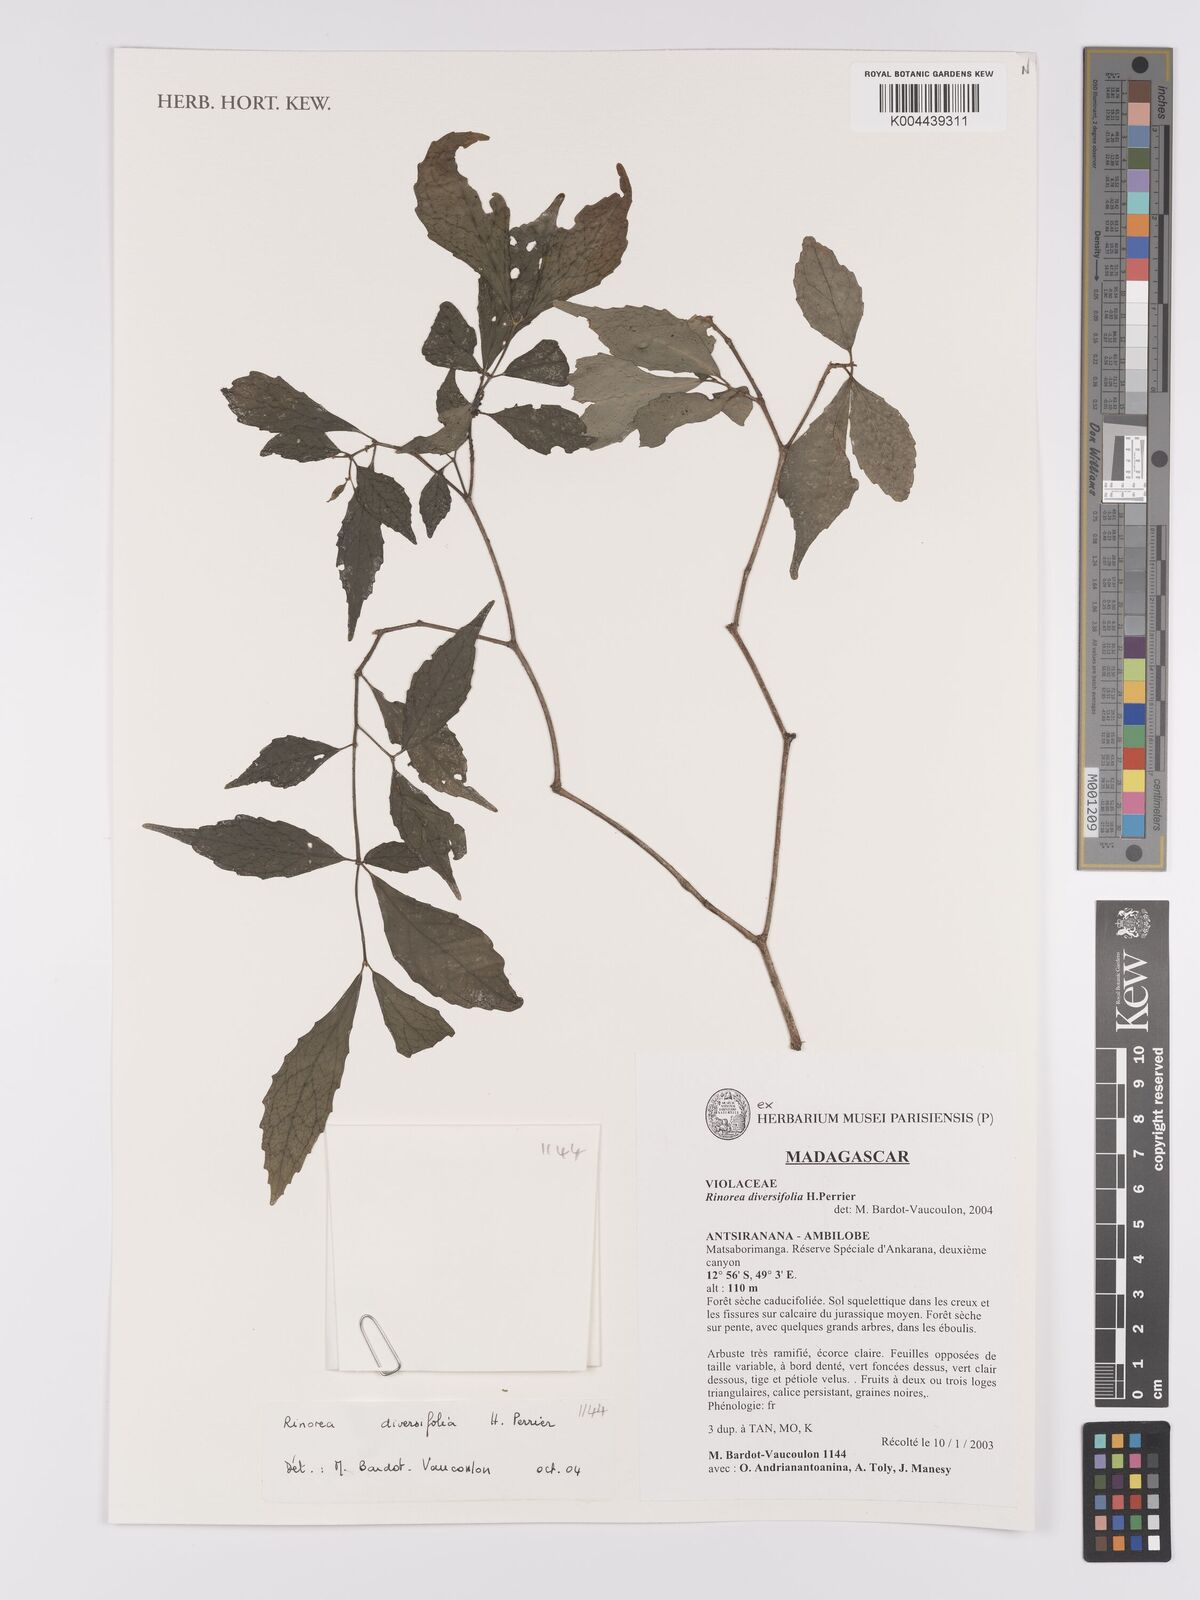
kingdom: Plantae
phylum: Tracheophyta
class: Magnoliopsida
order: Malpighiales
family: Violaceae
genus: Rinorea
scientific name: Rinorea diversifolia
